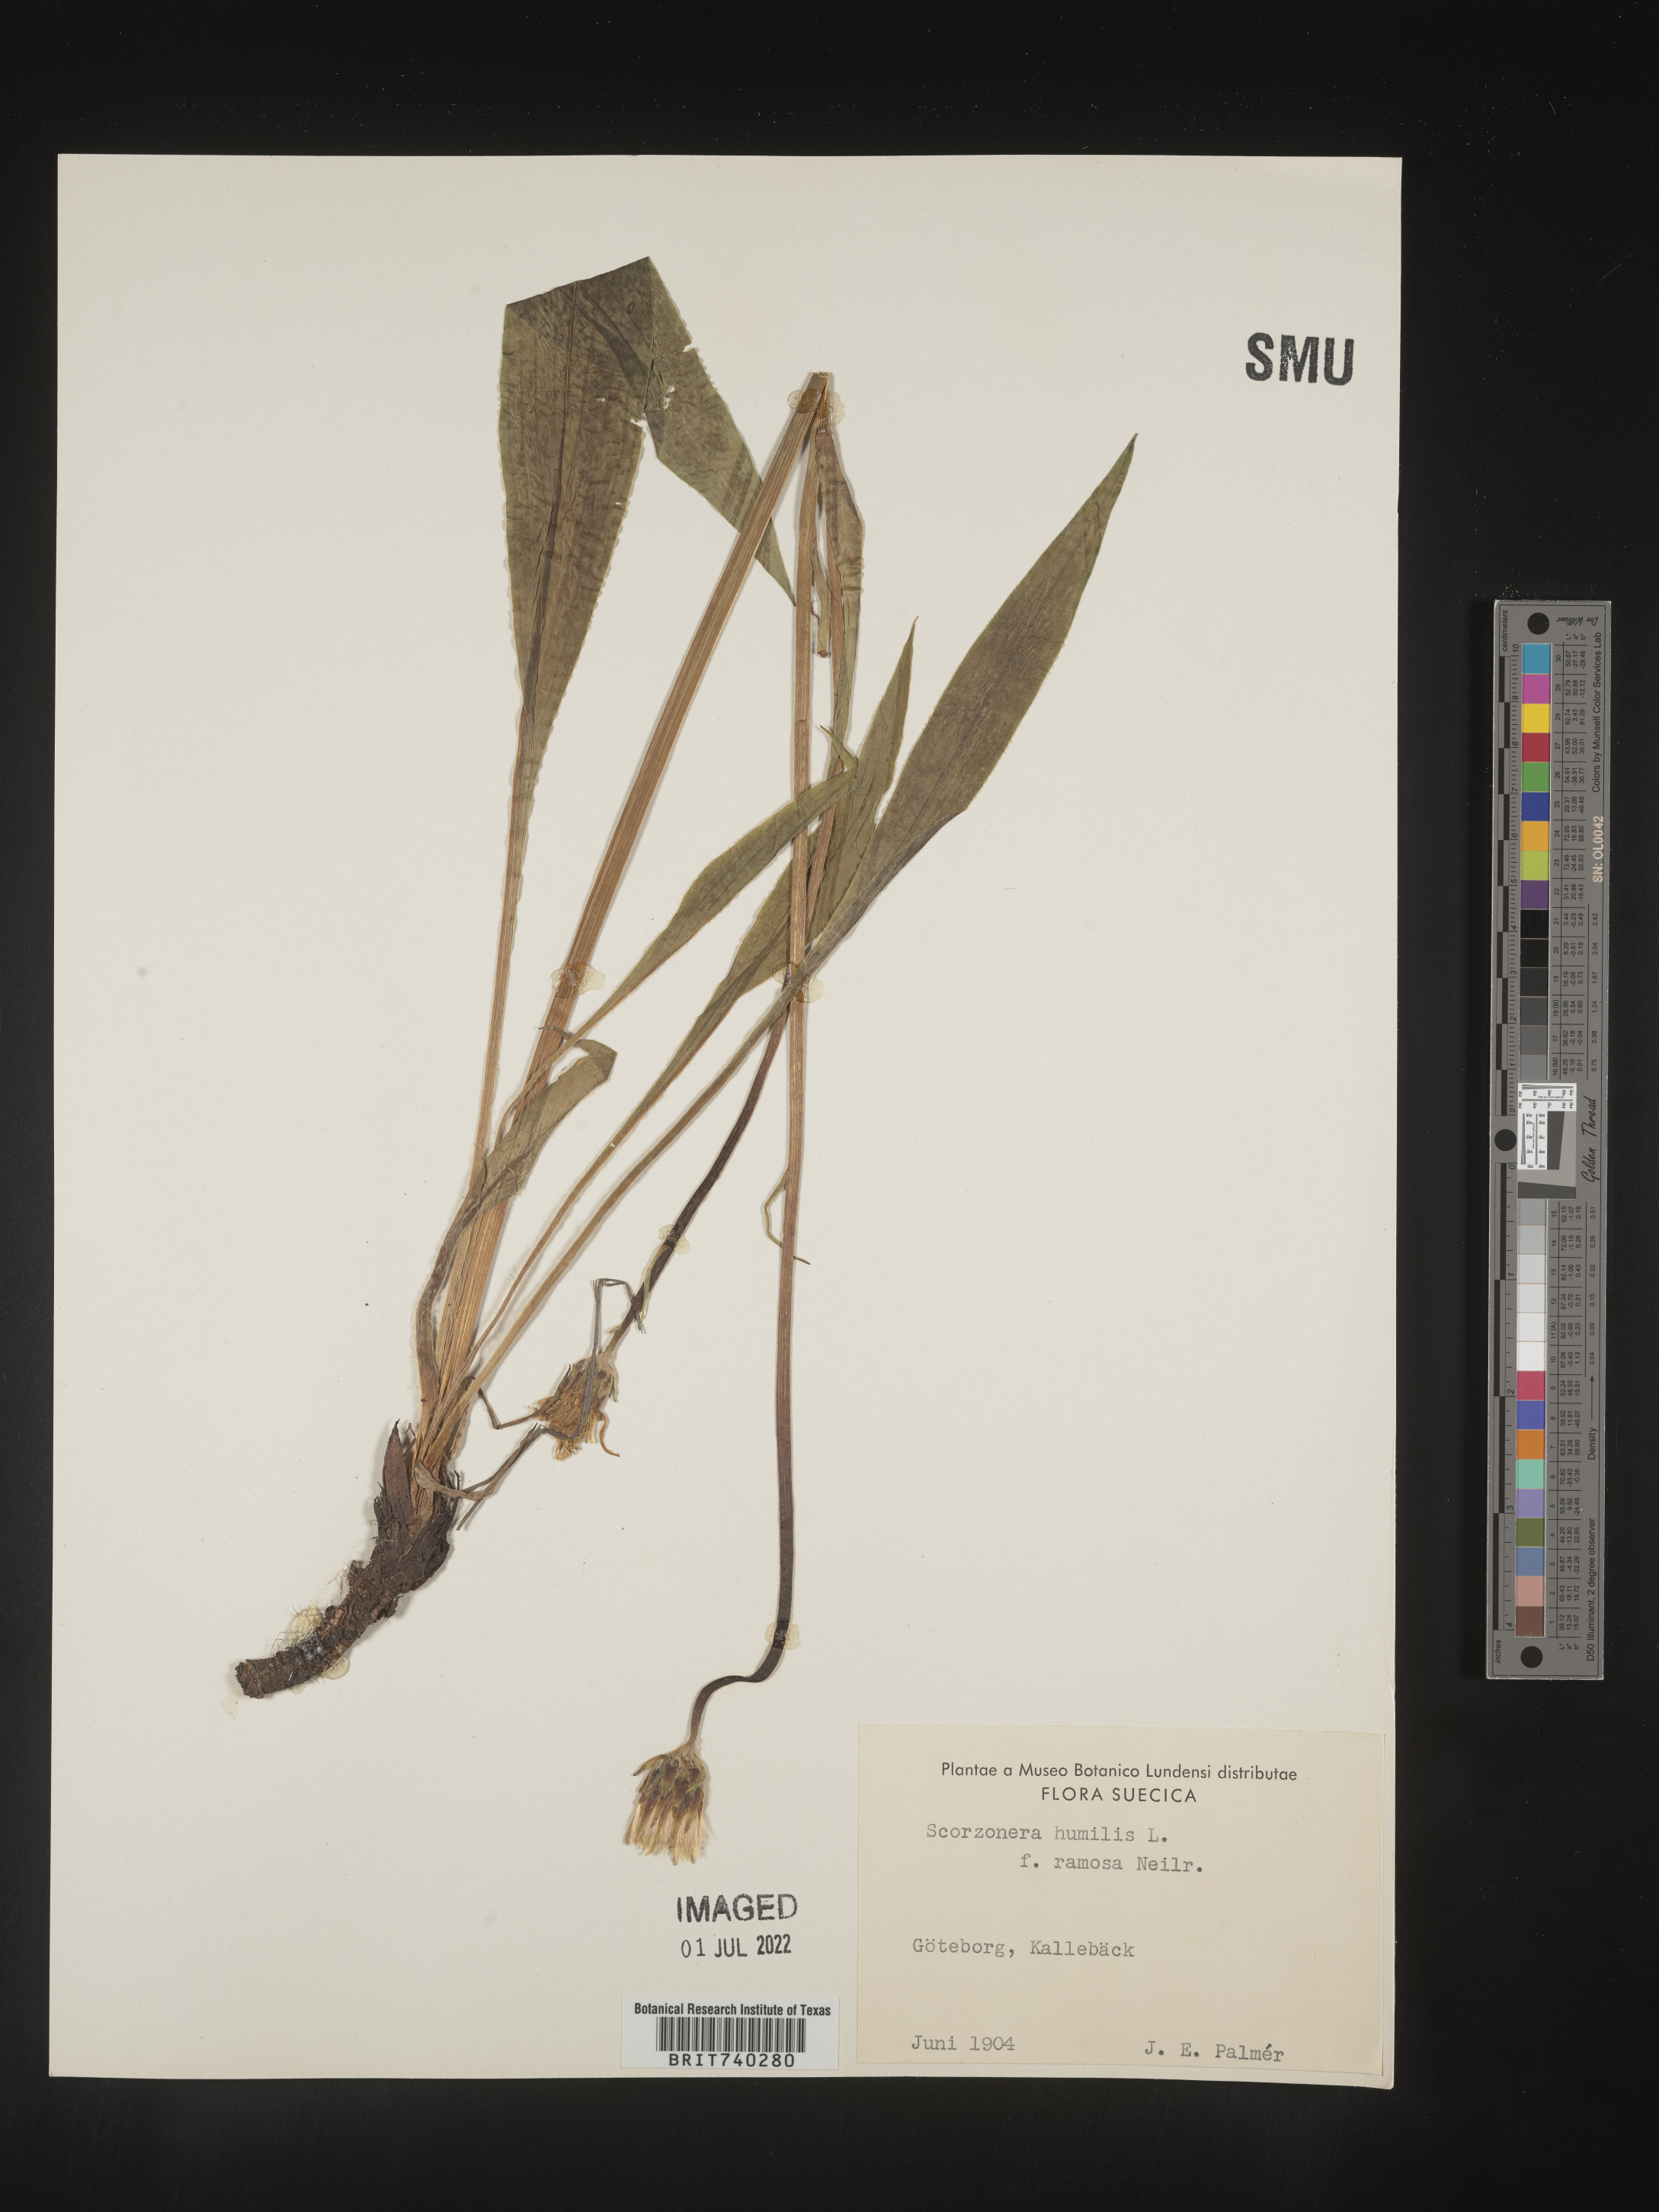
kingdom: Plantae
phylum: Tracheophyta
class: Magnoliopsida
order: Asterales
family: Asteraceae
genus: Scorzonera
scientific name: Scorzonera
